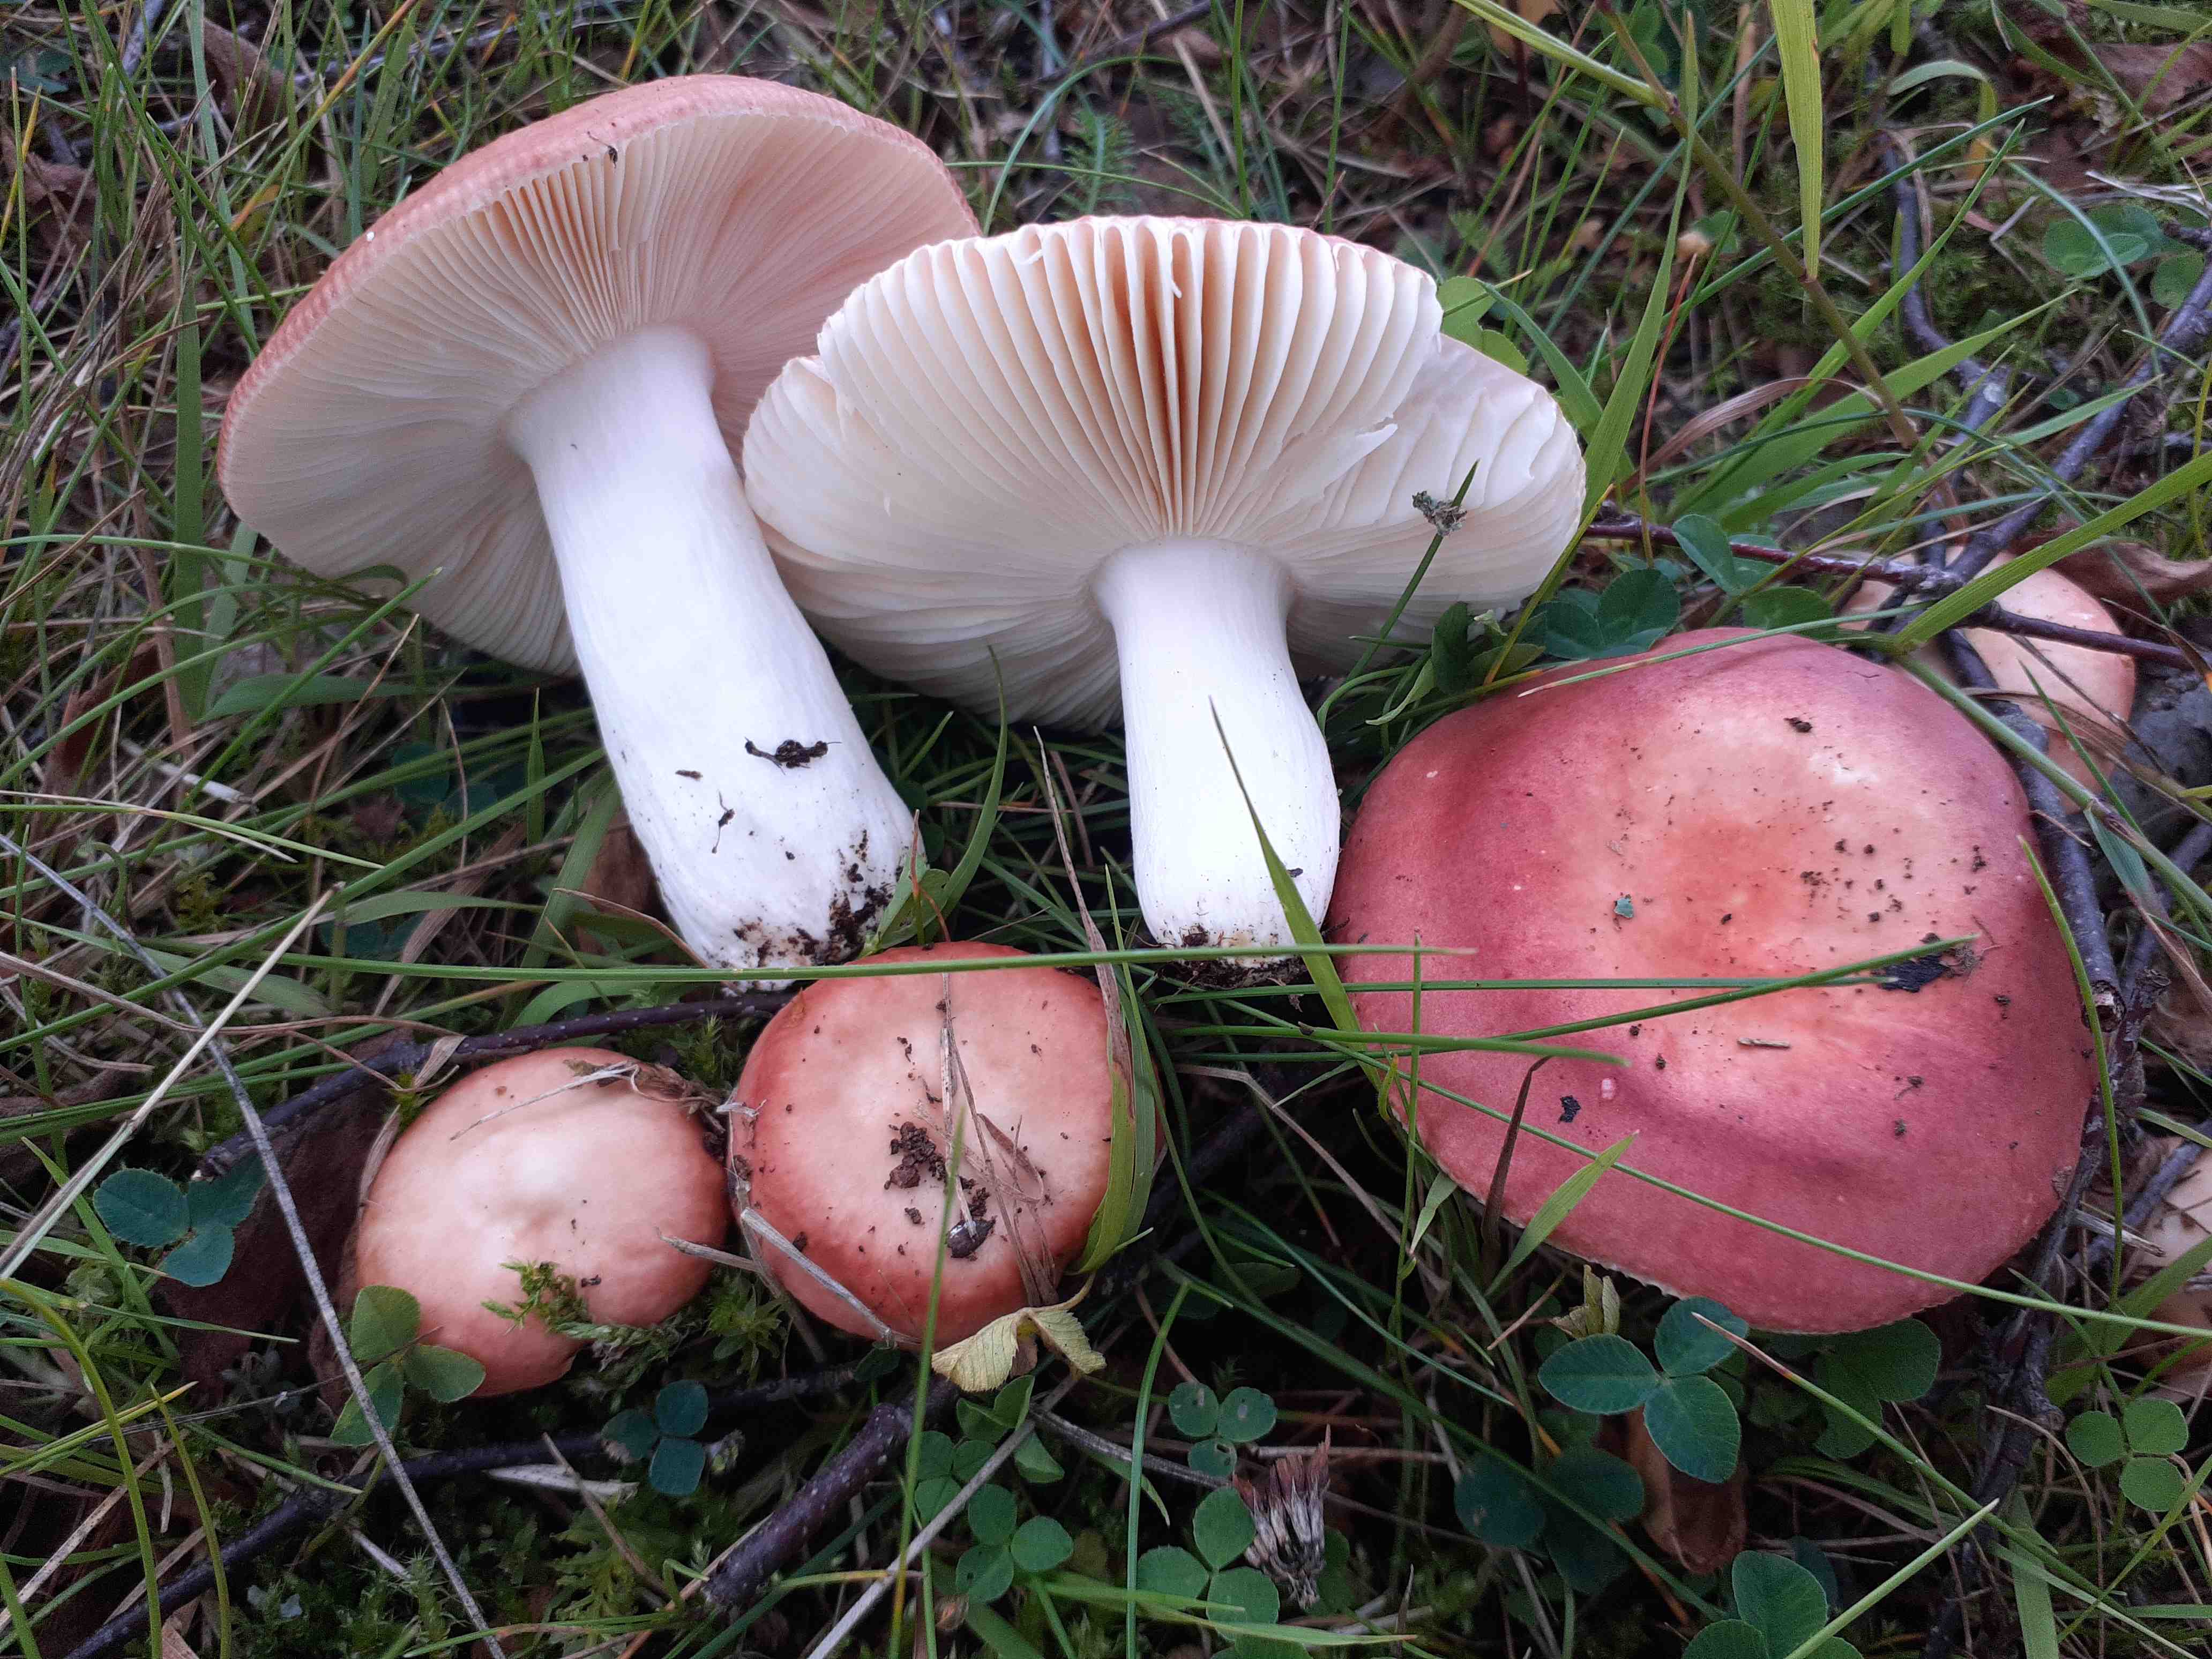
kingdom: Fungi
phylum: Basidiomycota
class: Agaricomycetes
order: Russulales
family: Russulaceae
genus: Russula
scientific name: Russula velenovskyi
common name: orangerød skørhat
